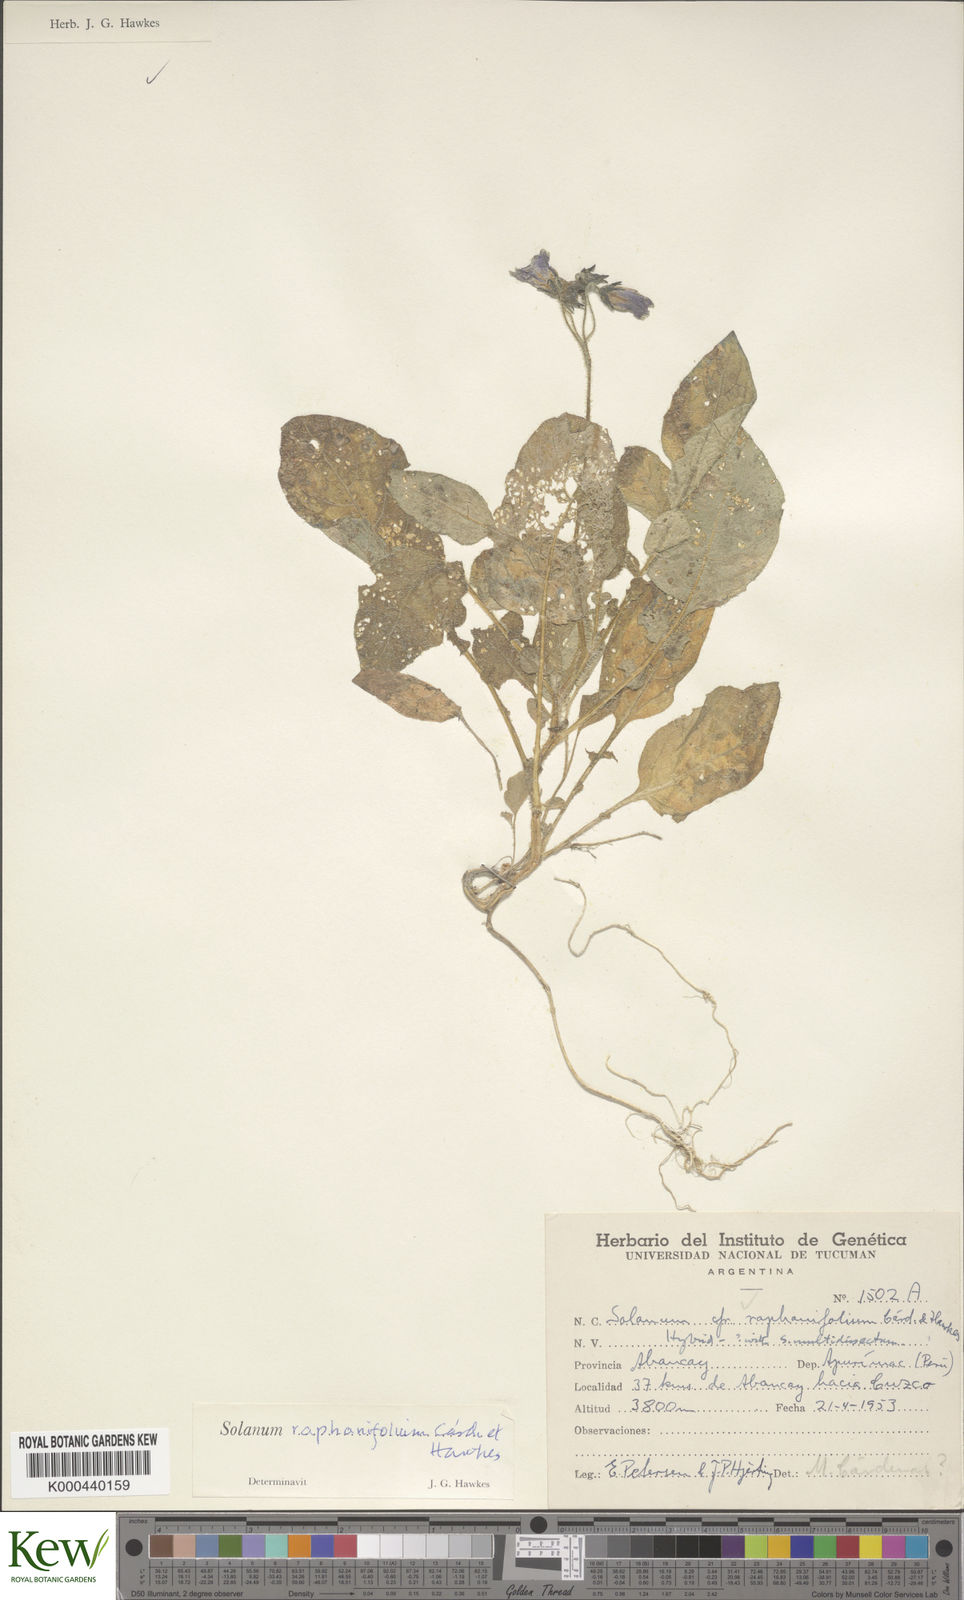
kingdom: Plantae
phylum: Tracheophyta
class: Magnoliopsida
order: Solanales
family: Solanaceae
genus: Solanum
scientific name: Solanum raphanifolium
